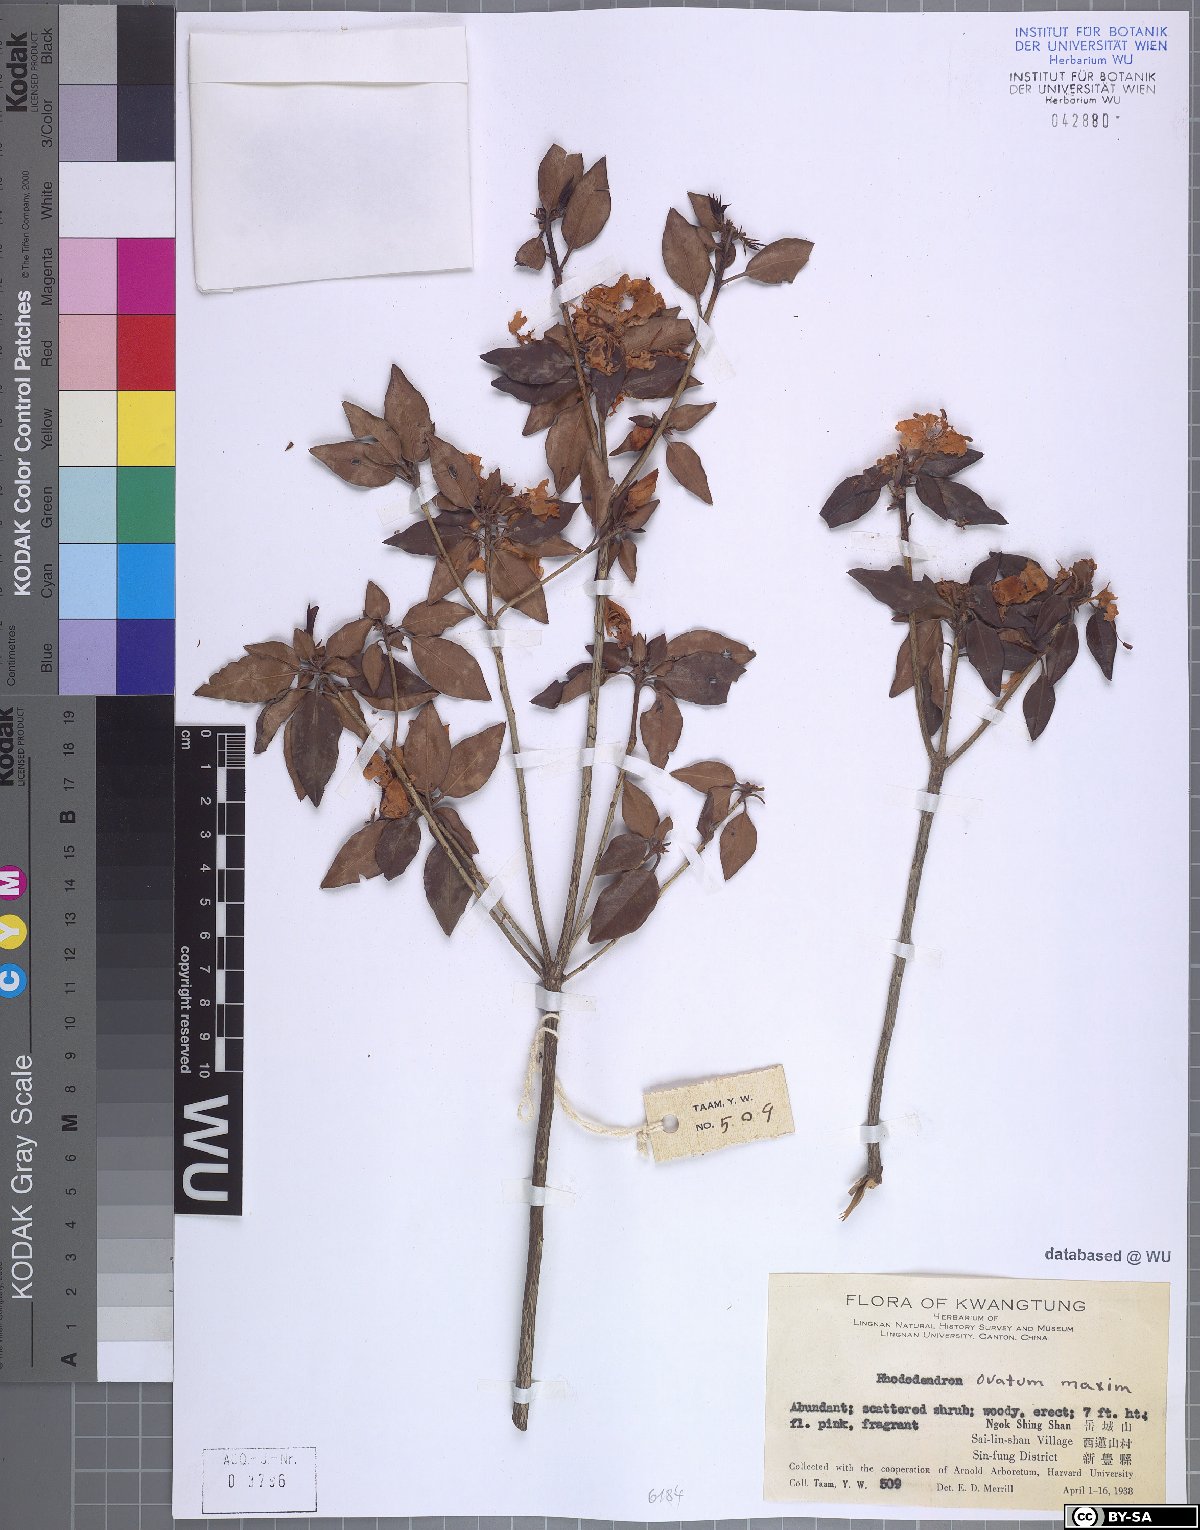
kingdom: Plantae
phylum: Tracheophyta
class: Magnoliopsida
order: Ericales
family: Ericaceae
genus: Rhododendron
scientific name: Rhododendron ovatum
